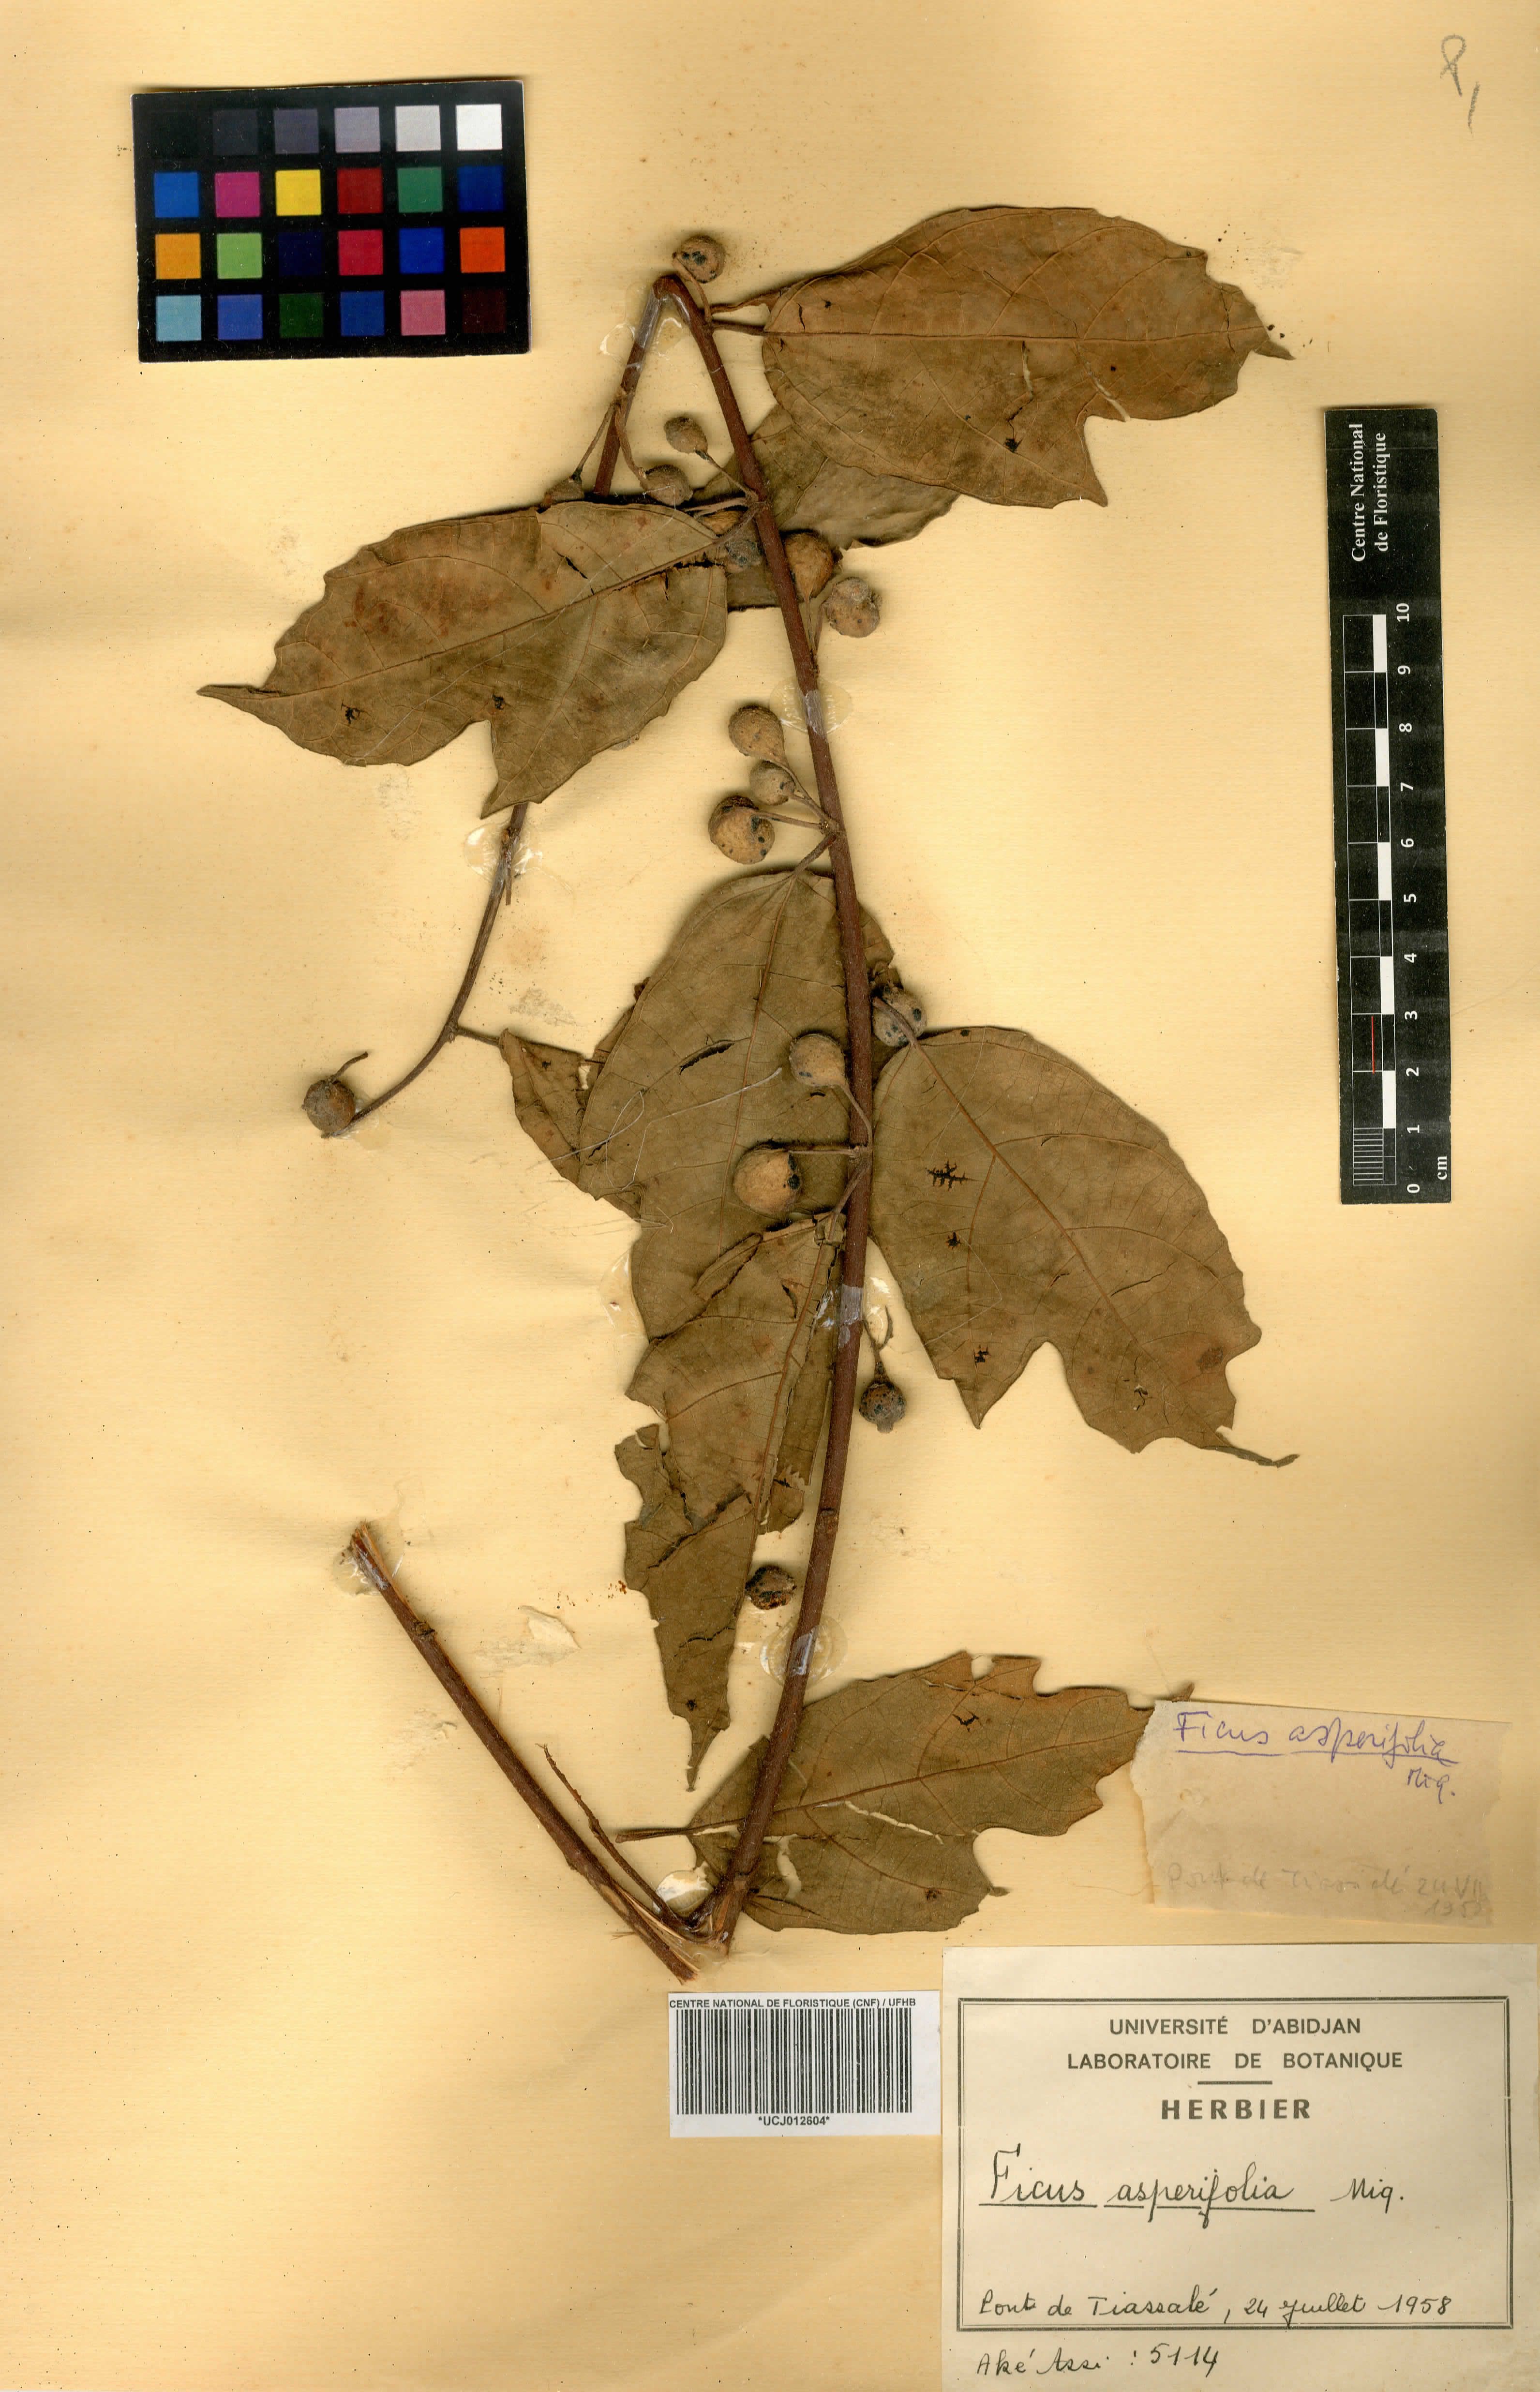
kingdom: Plantae
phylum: Tracheophyta
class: Magnoliopsida
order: Rosales
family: Moraceae
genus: Ficus
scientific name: Ficus asperifolia
